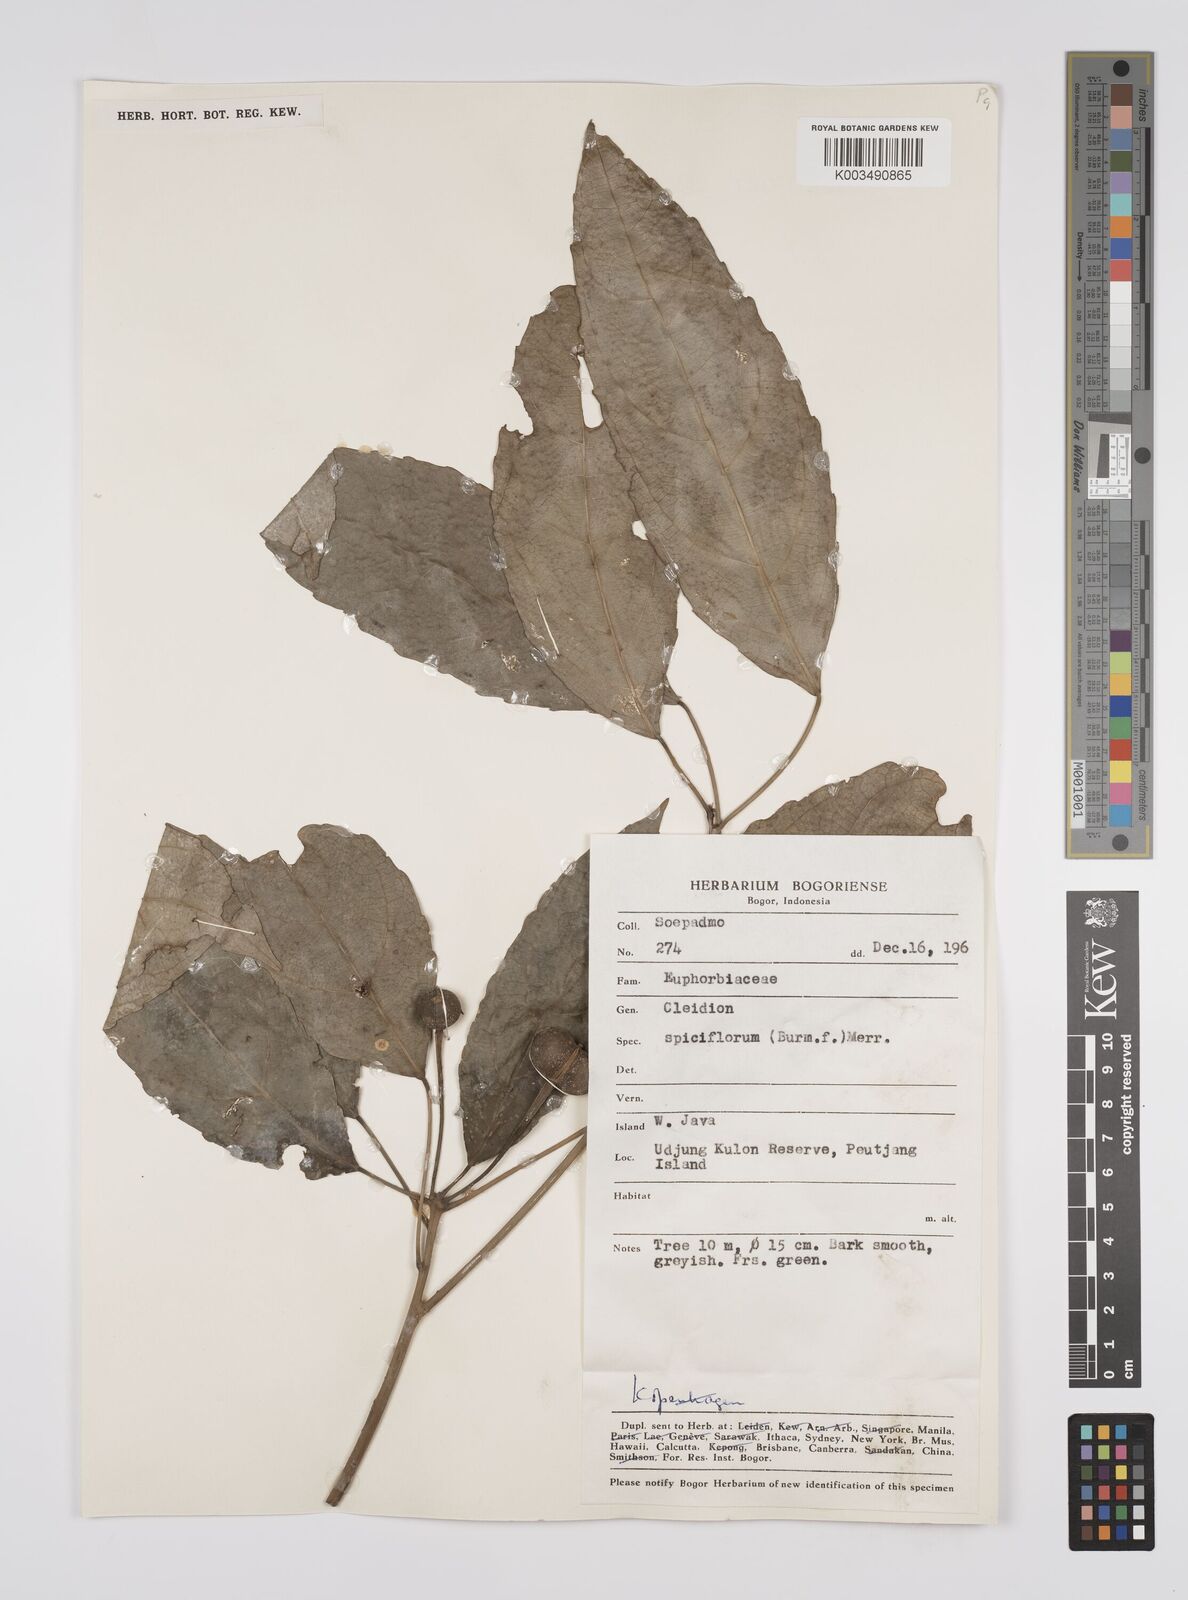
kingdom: Plantae
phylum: Tracheophyta
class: Magnoliopsida
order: Malpighiales
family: Euphorbiaceae
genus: Acalypha
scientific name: Acalypha spiciflora
